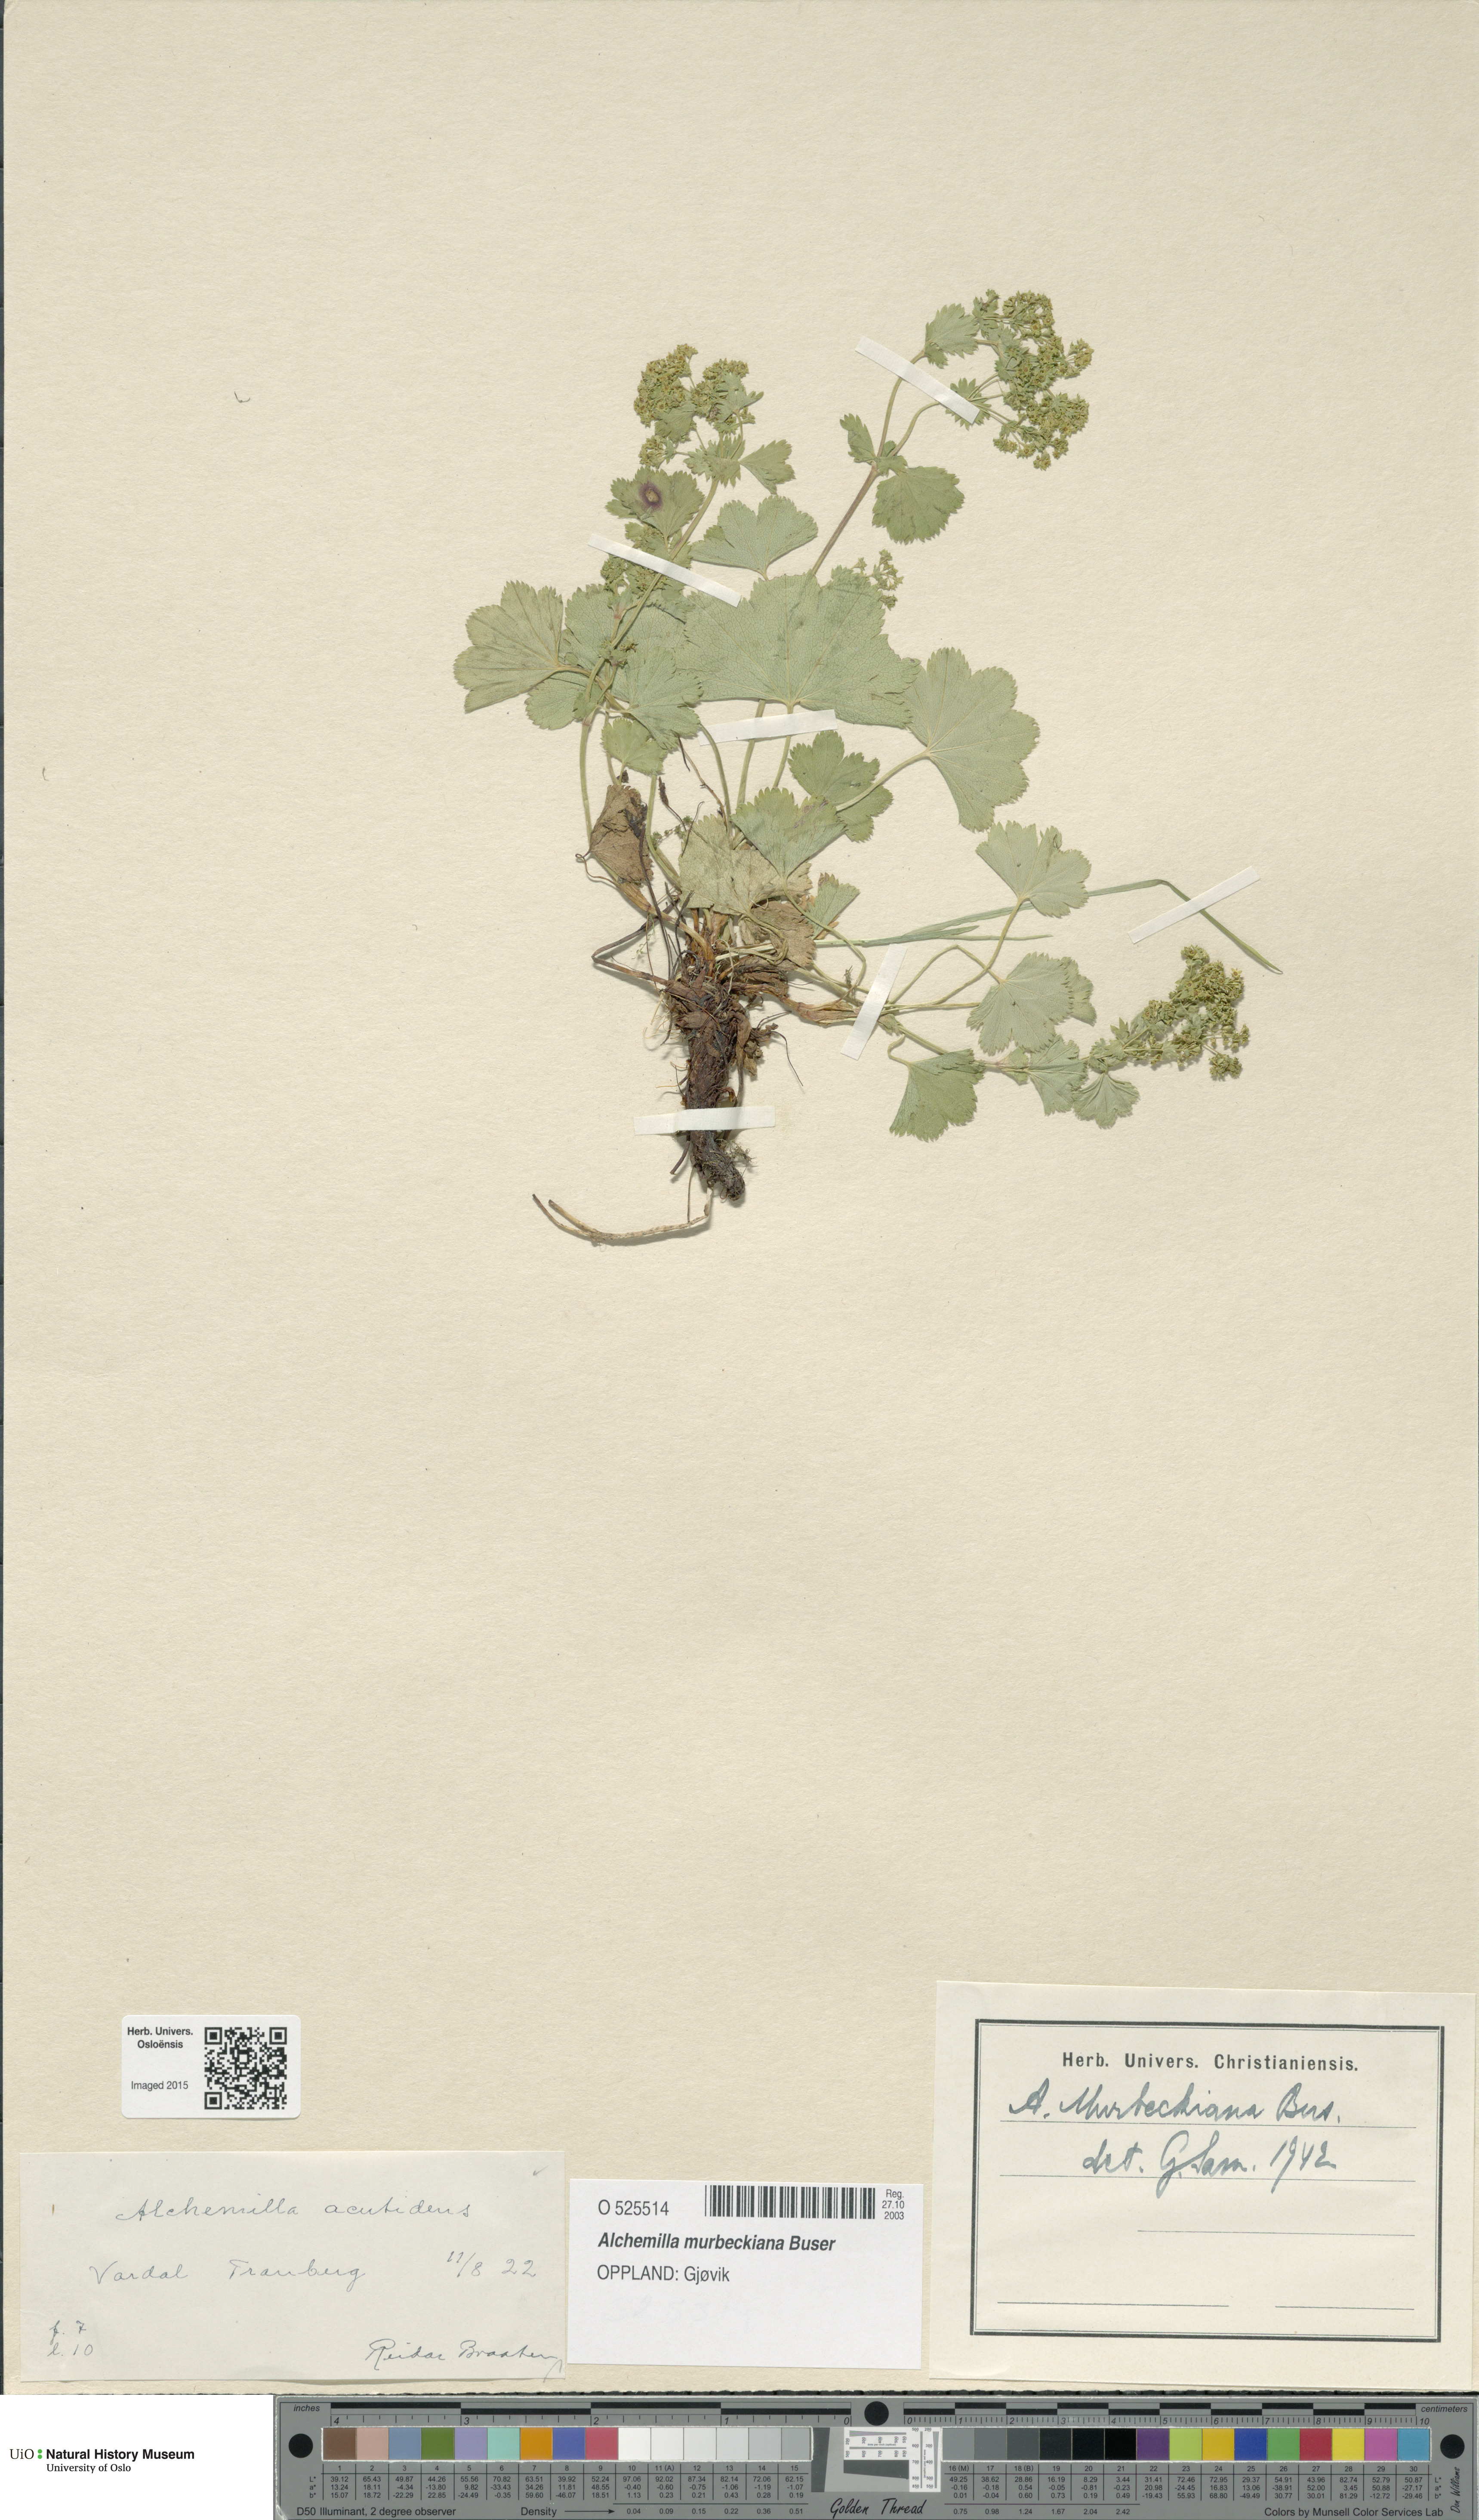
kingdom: Plantae
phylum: Tracheophyta
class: Magnoliopsida
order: Rosales
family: Rosaceae
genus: Alchemilla
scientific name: Alchemilla murbeckiana
